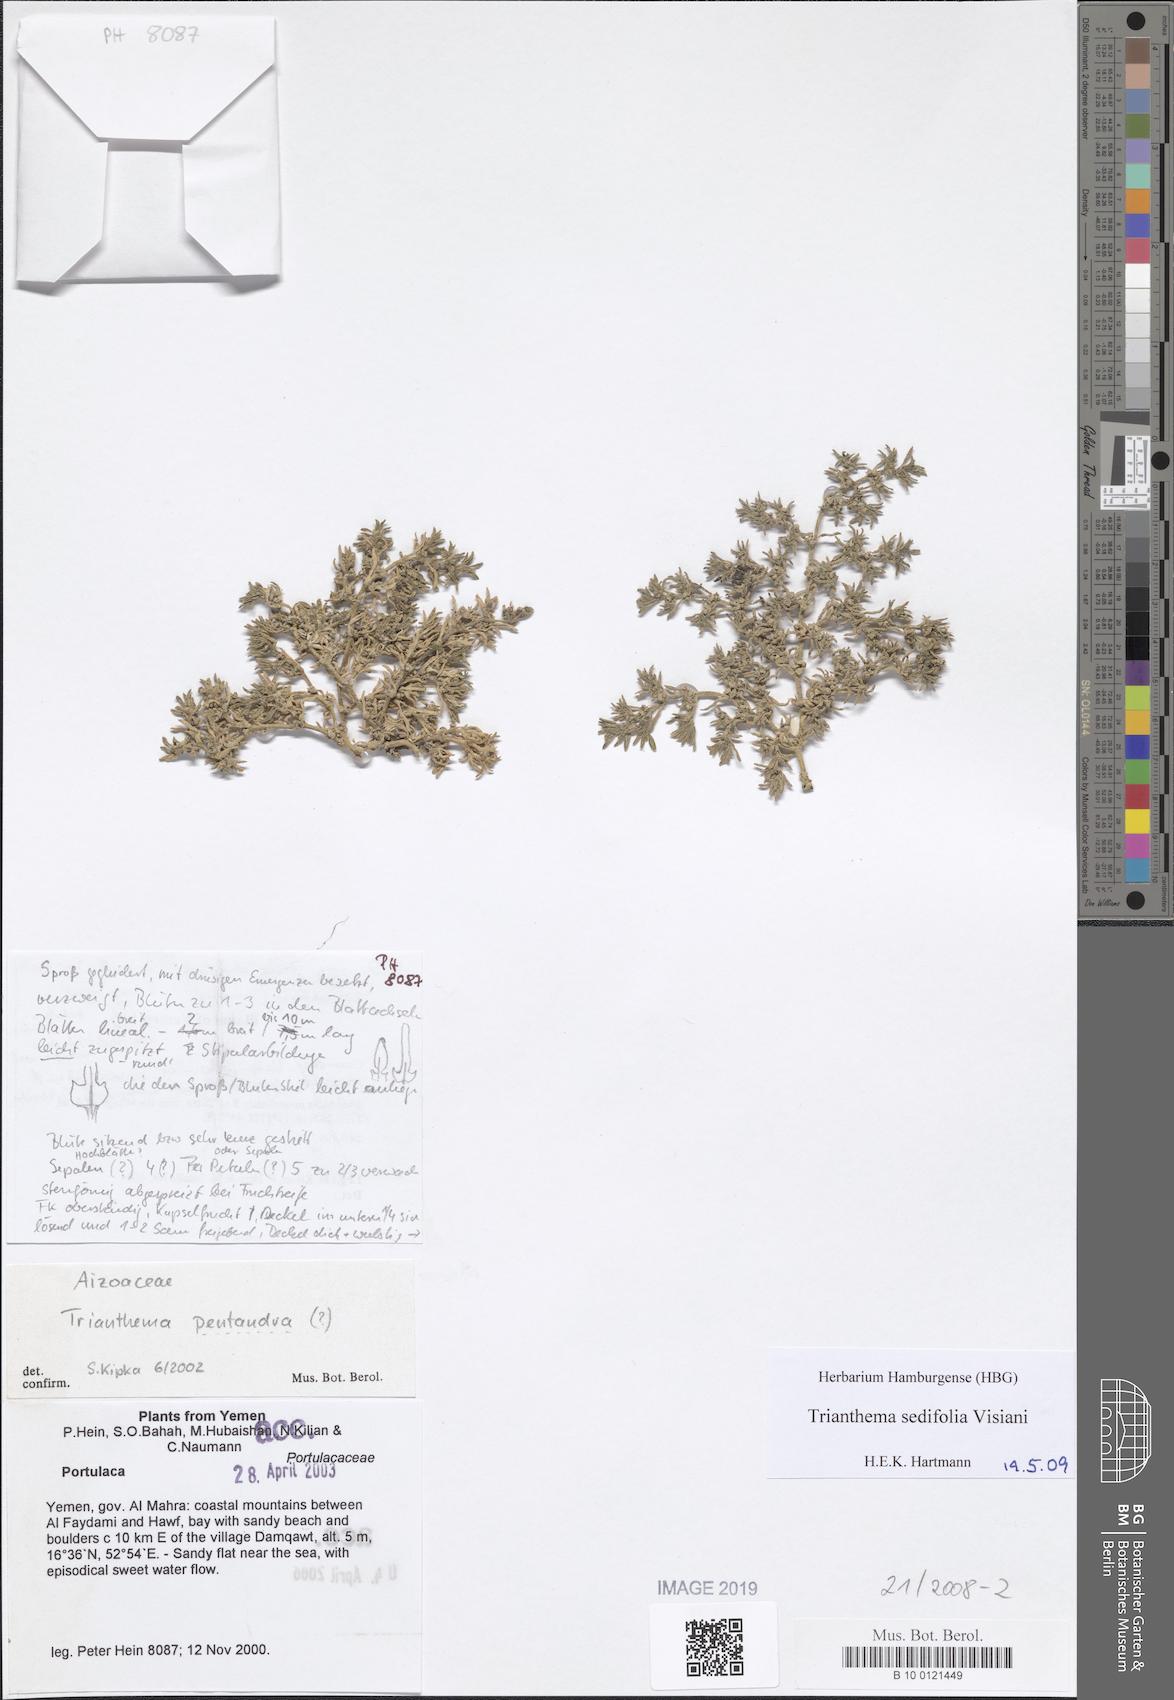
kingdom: Plantae
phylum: Tracheophyta
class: Magnoliopsida
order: Caryophyllales
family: Aizoaceae
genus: Trianthema
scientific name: Trianthema triquetrum
